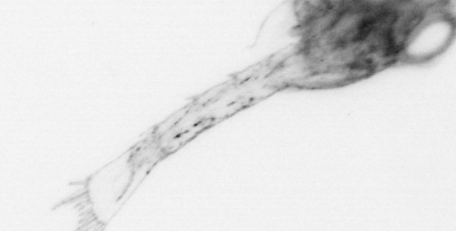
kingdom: Animalia
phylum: Arthropoda
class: Malacostraca
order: Decapoda
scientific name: Decapoda
